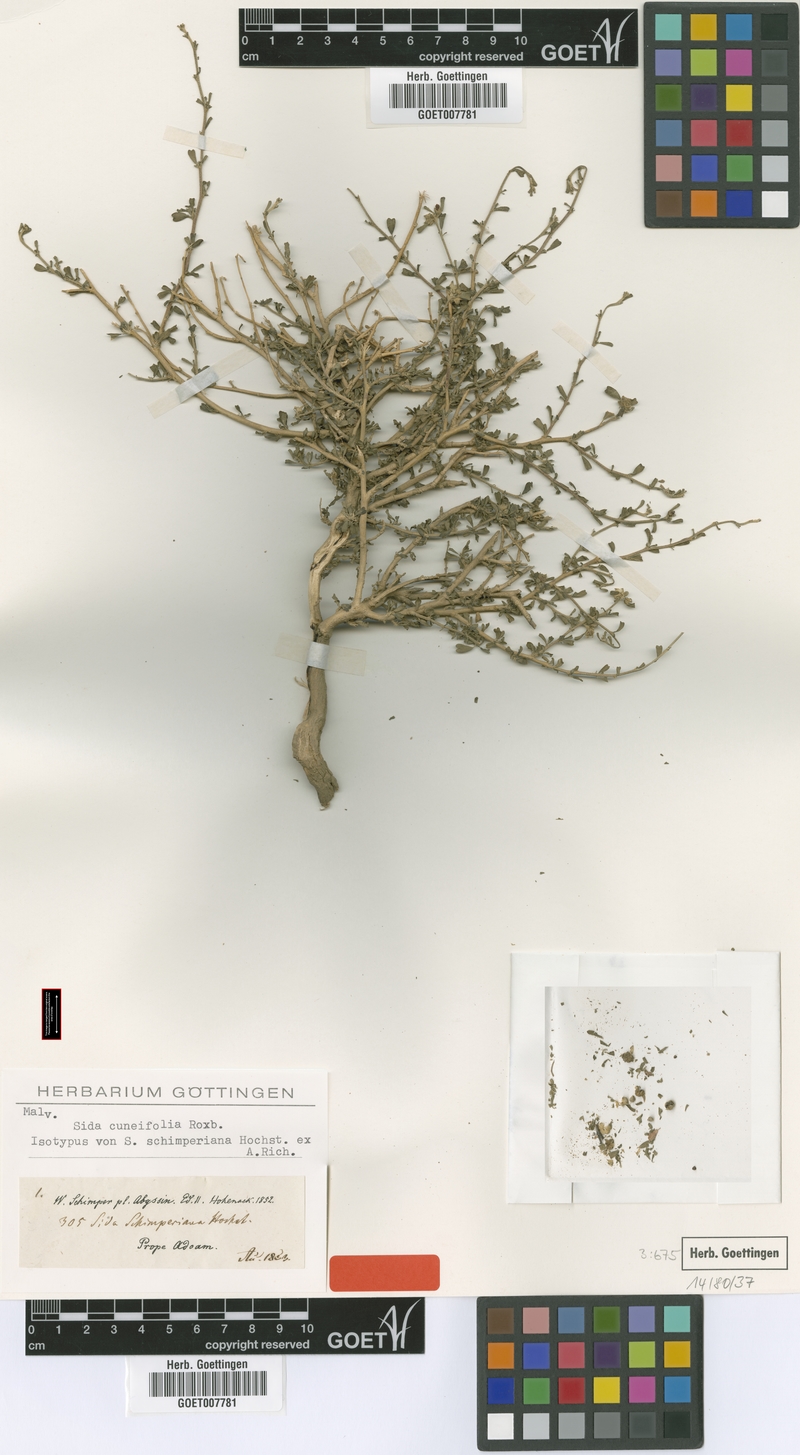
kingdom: Plantae
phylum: Tracheophyta
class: Magnoliopsida
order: Malvales
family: Malvaceae
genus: Sida
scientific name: Sida schimperiana
